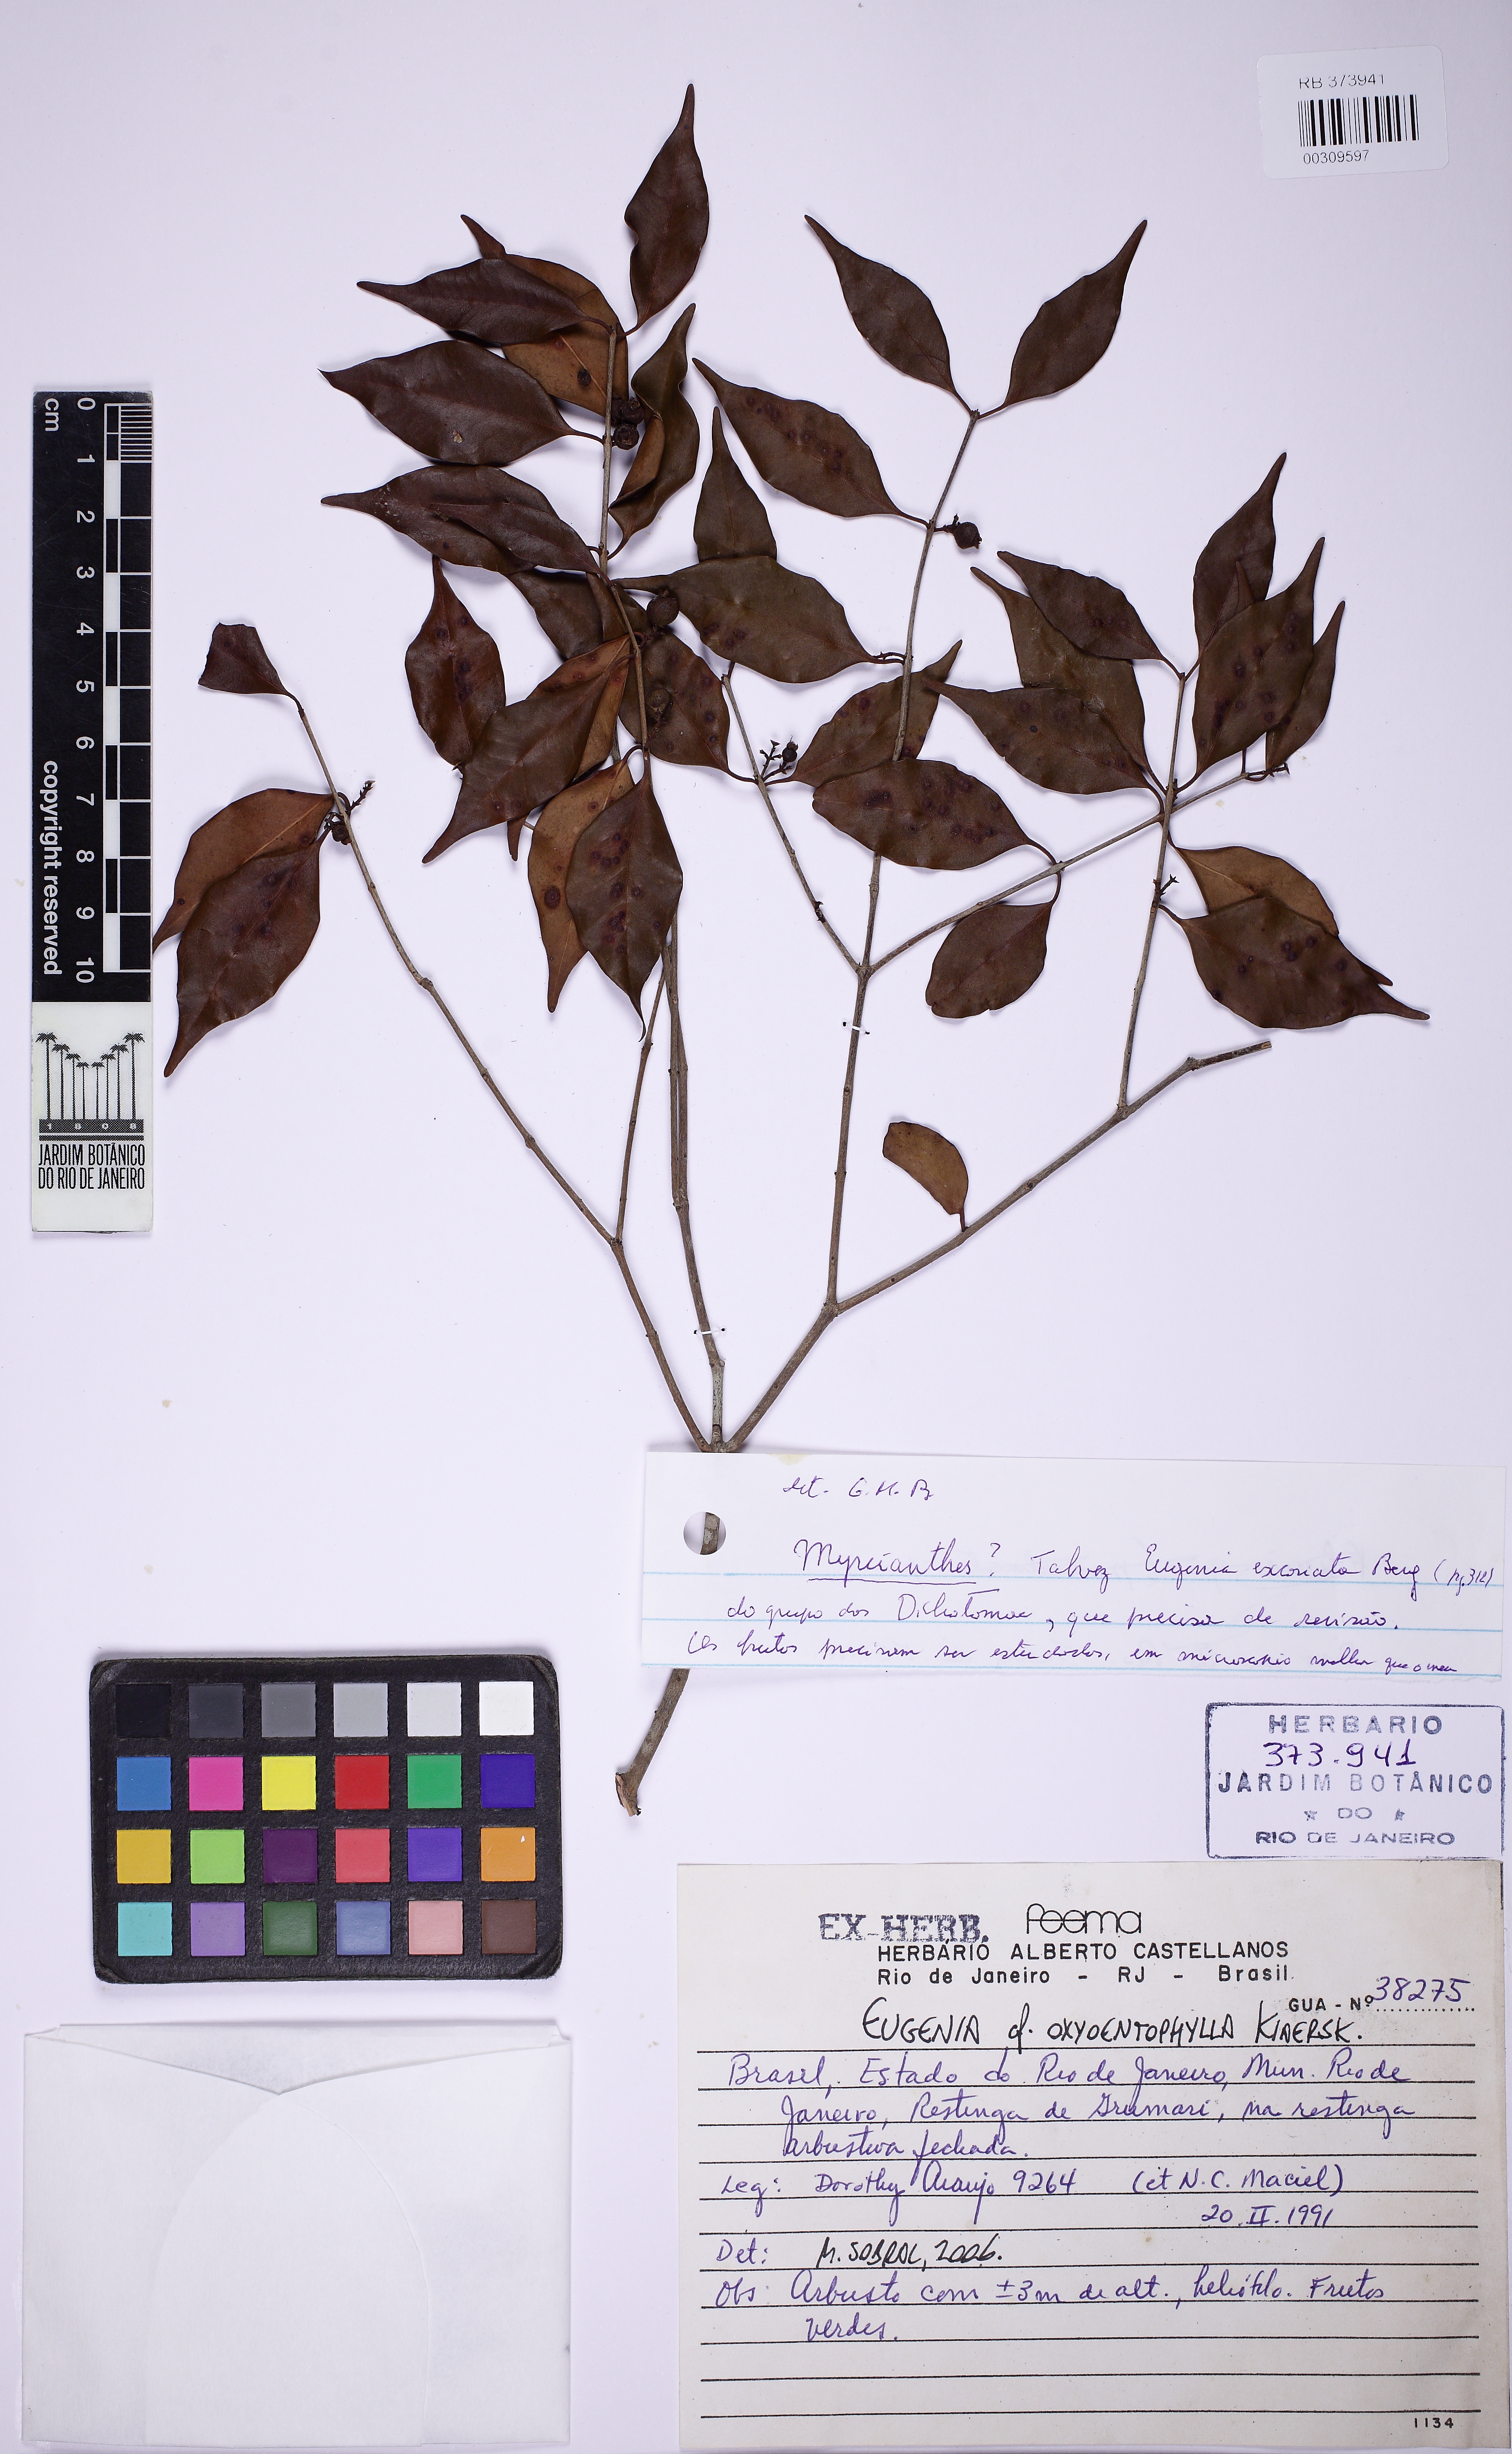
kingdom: Plantae
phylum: Tracheophyta
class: Magnoliopsida
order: Myrtales
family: Myrtaceae
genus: Eugenia
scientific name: Eugenia oxyoentophylla
